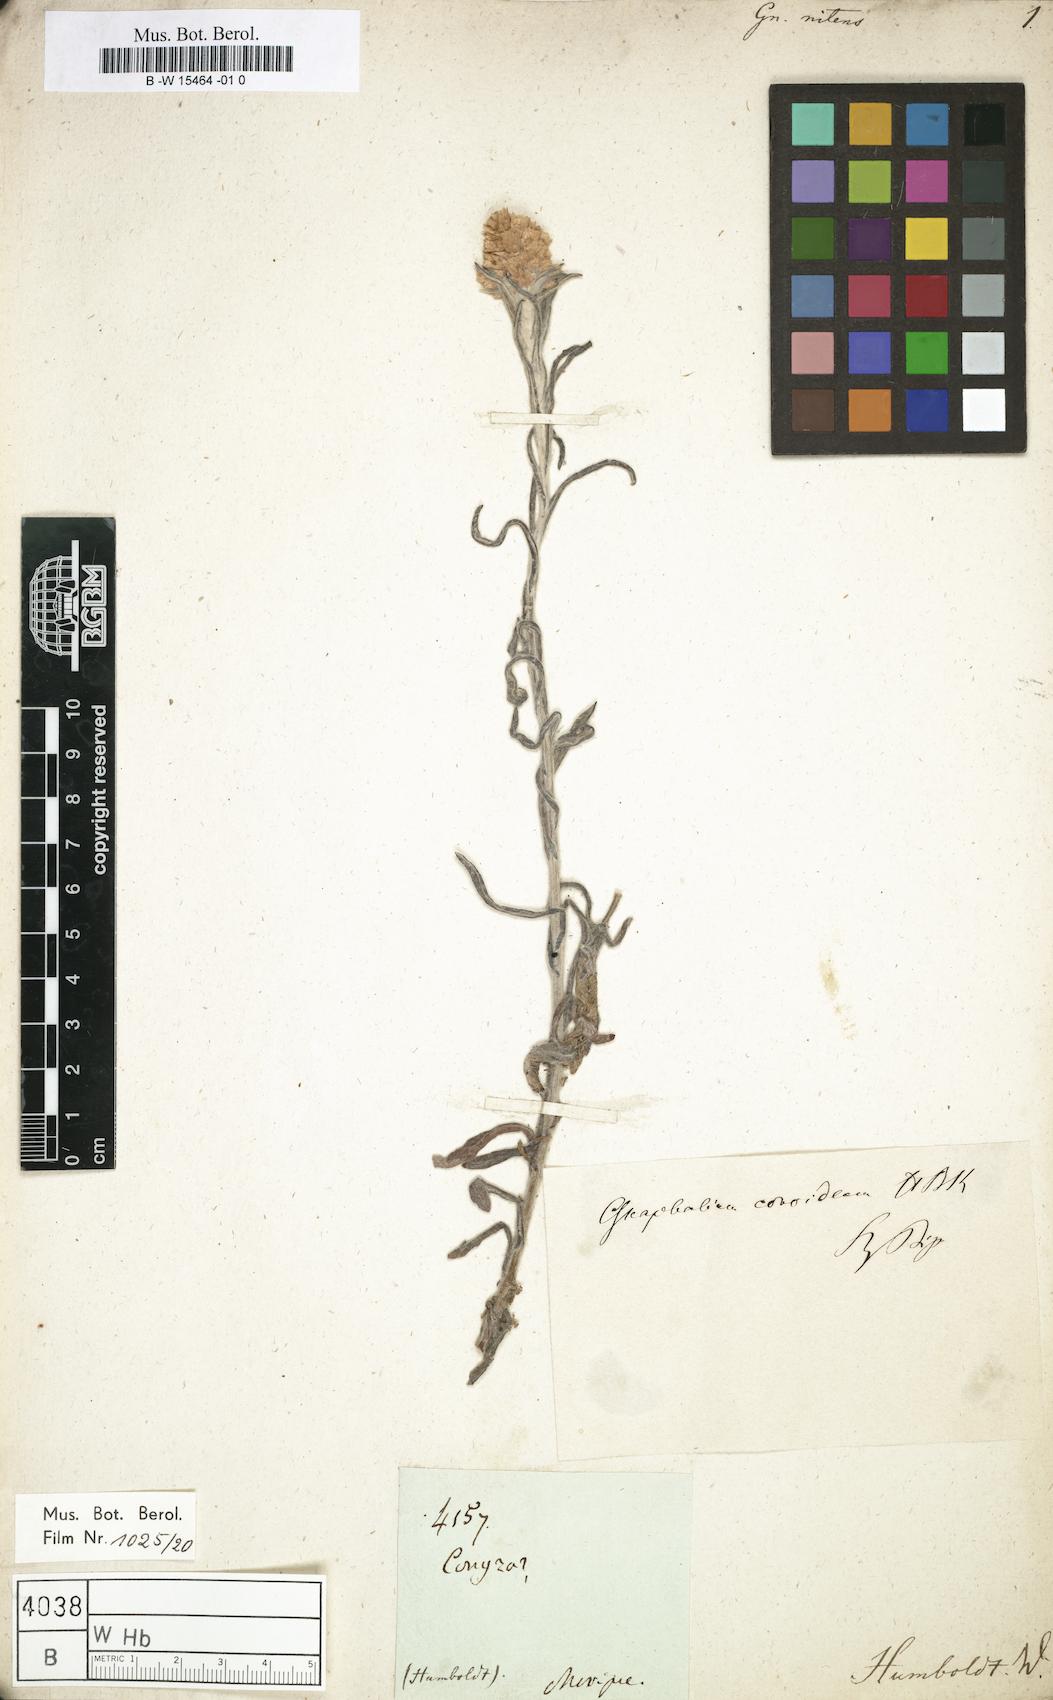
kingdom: Plantae
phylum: Tracheophyta
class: Magnoliopsida
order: Asterales
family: Asteraceae
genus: Pseudognaphalium
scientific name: Pseudognaphalium roseum
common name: Rosy cudweed
